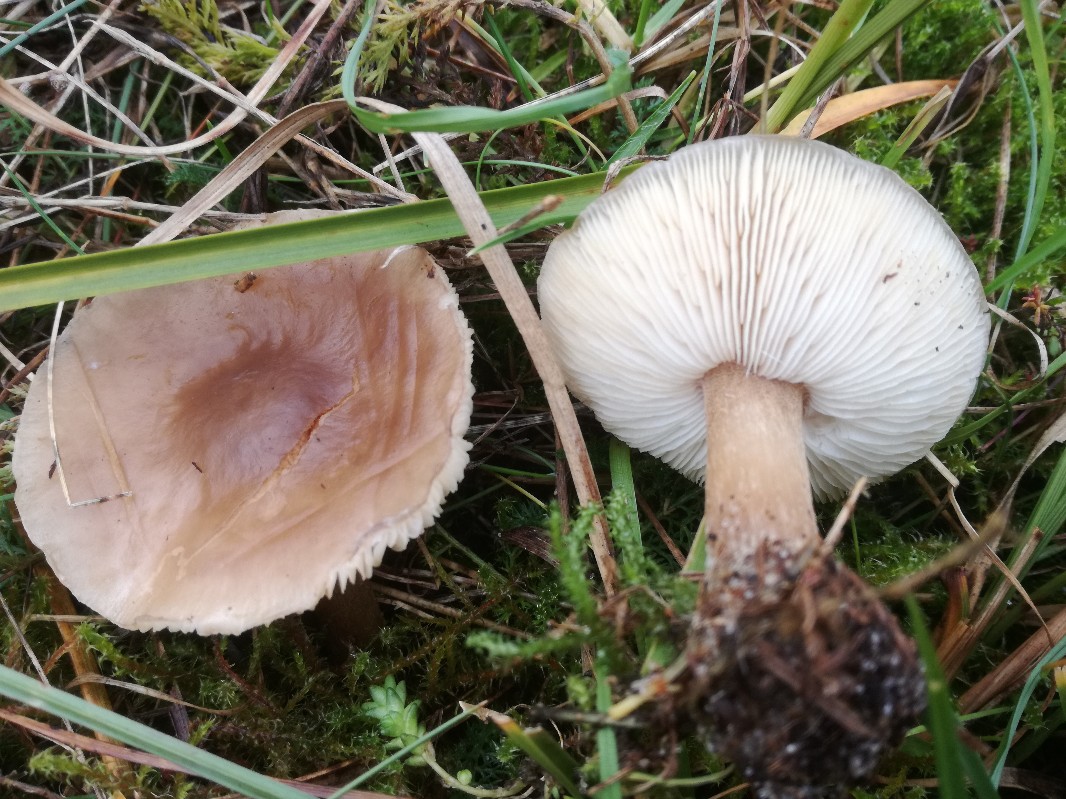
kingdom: Fungi
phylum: Basidiomycota
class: Agaricomycetes
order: Agaricales
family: Tricholomataceae
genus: Melanoleuca
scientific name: Melanoleuca polioleuca
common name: hvidbladet munkehat
